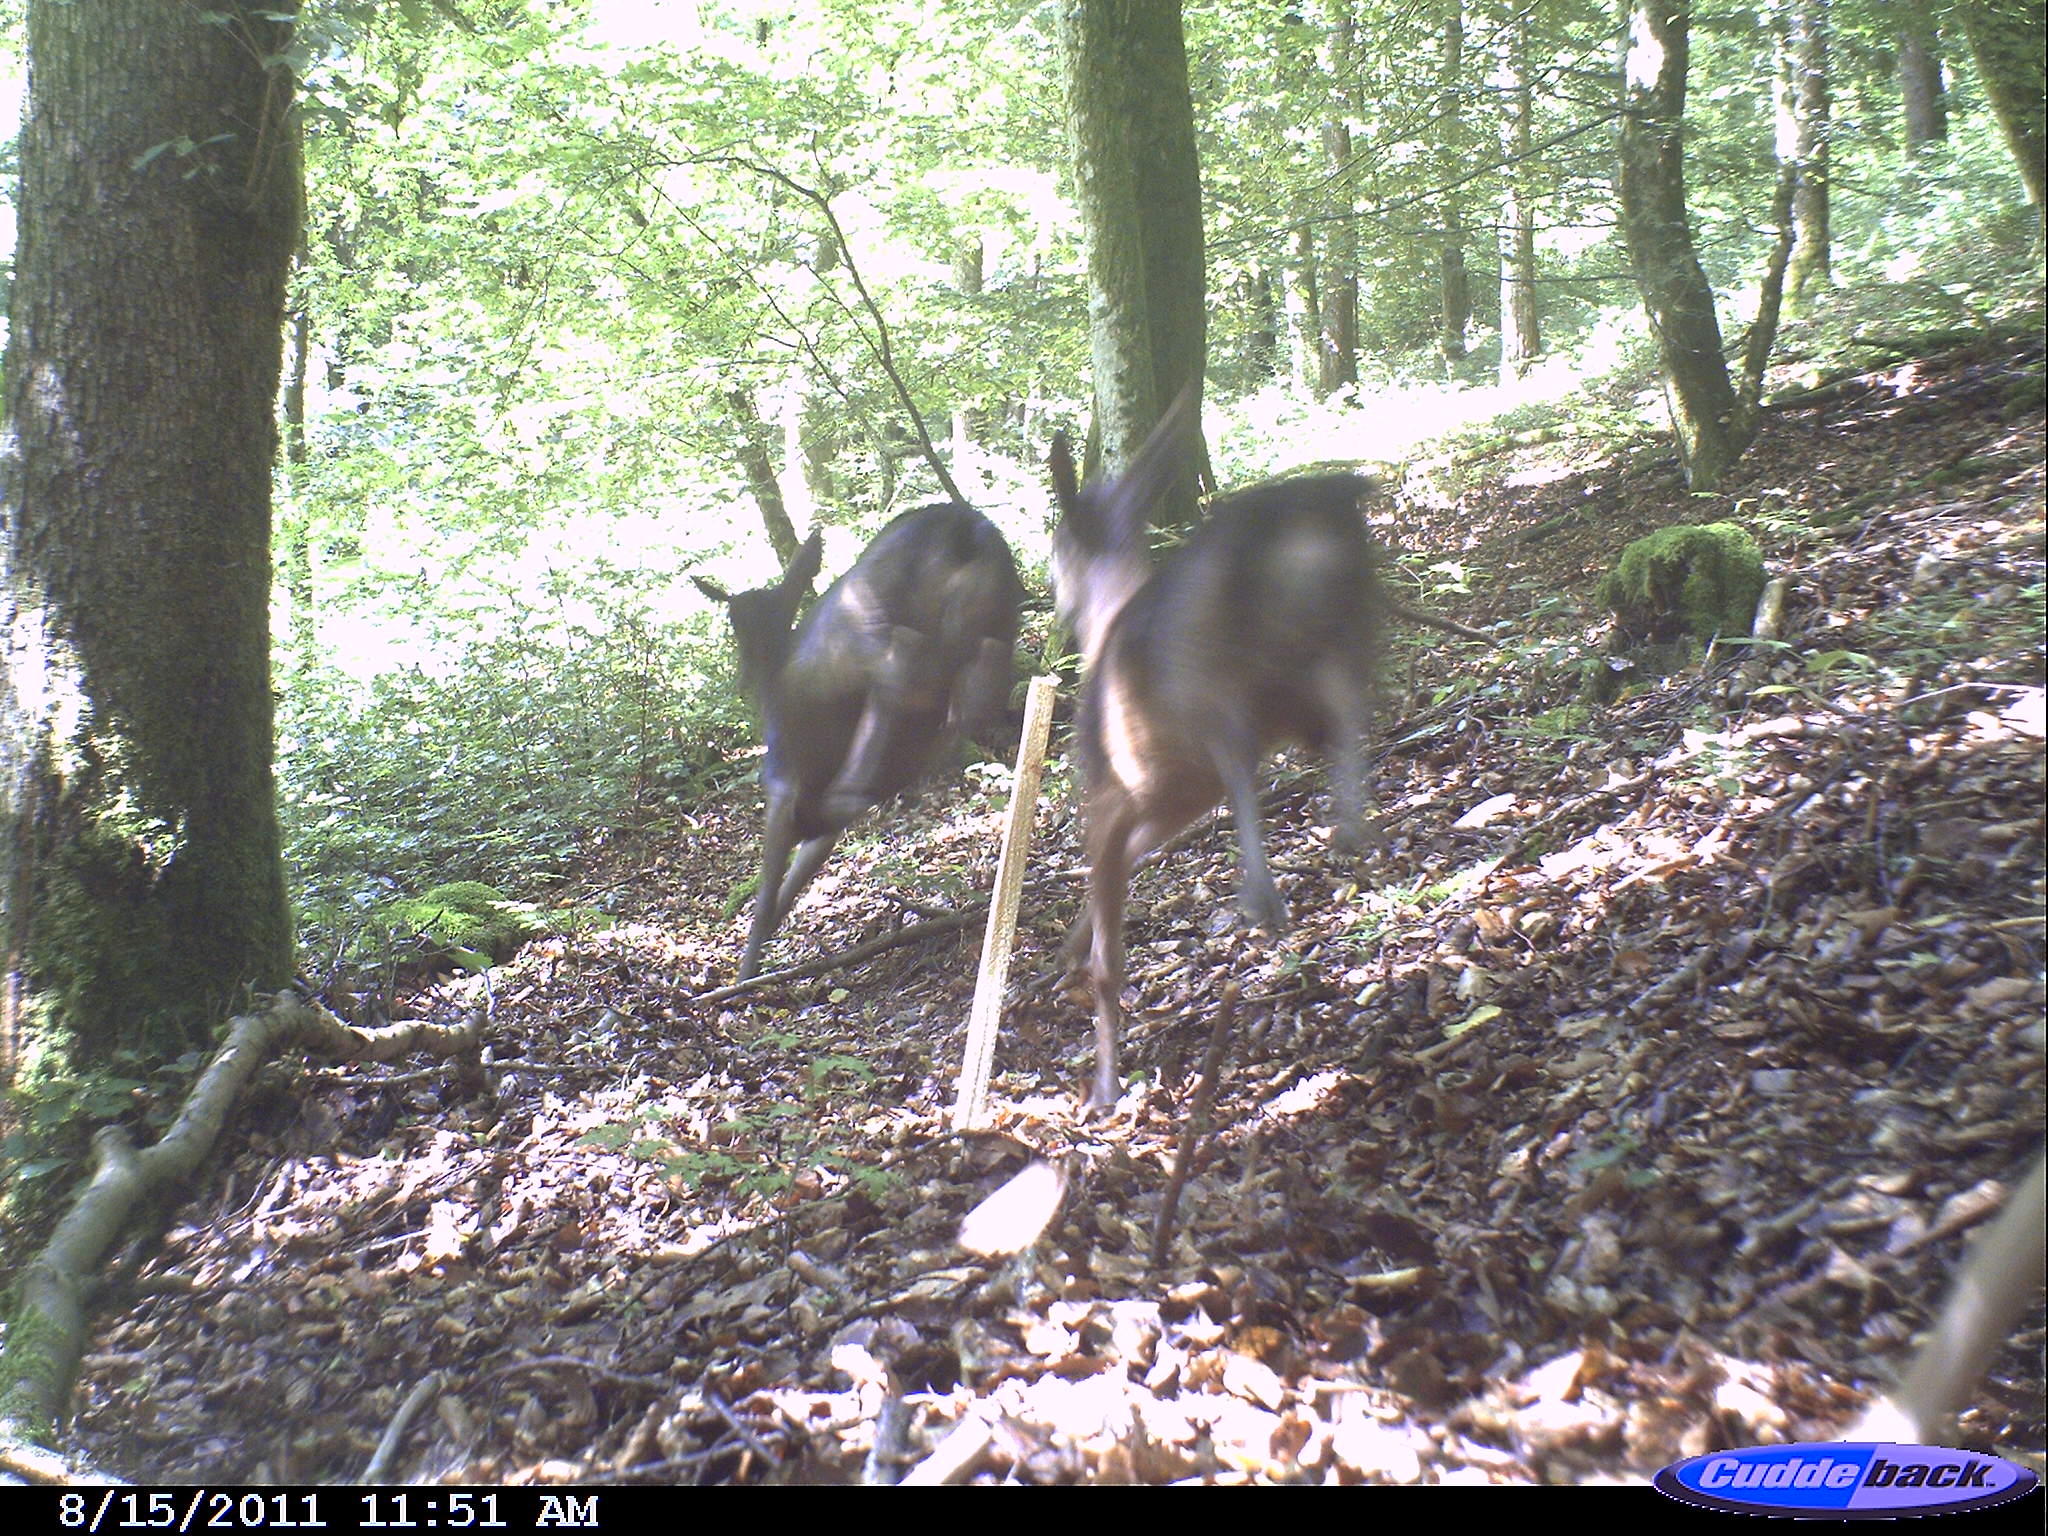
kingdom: Animalia
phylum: Chordata
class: Mammalia
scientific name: Mammalia
